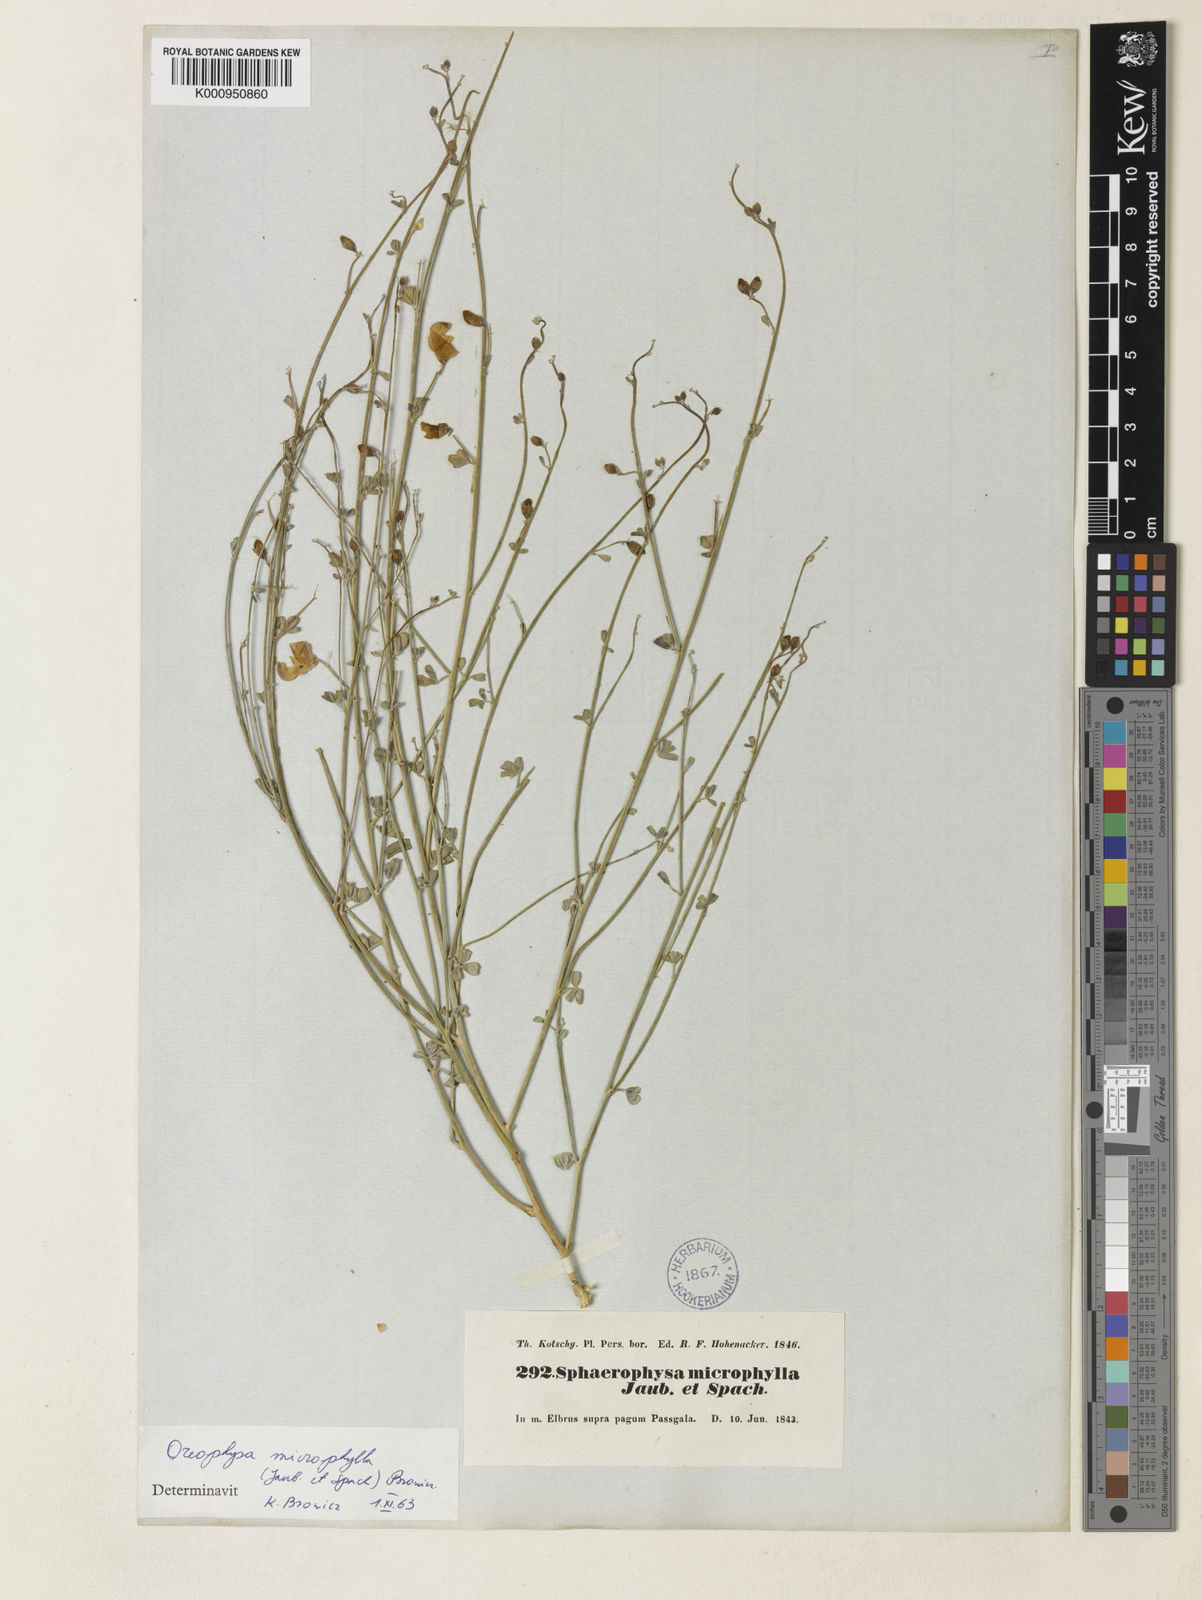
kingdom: Plantae
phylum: Tracheophyta
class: Magnoliopsida
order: Fabales
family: Fabaceae
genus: Colutea
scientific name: Colutea triphylla
